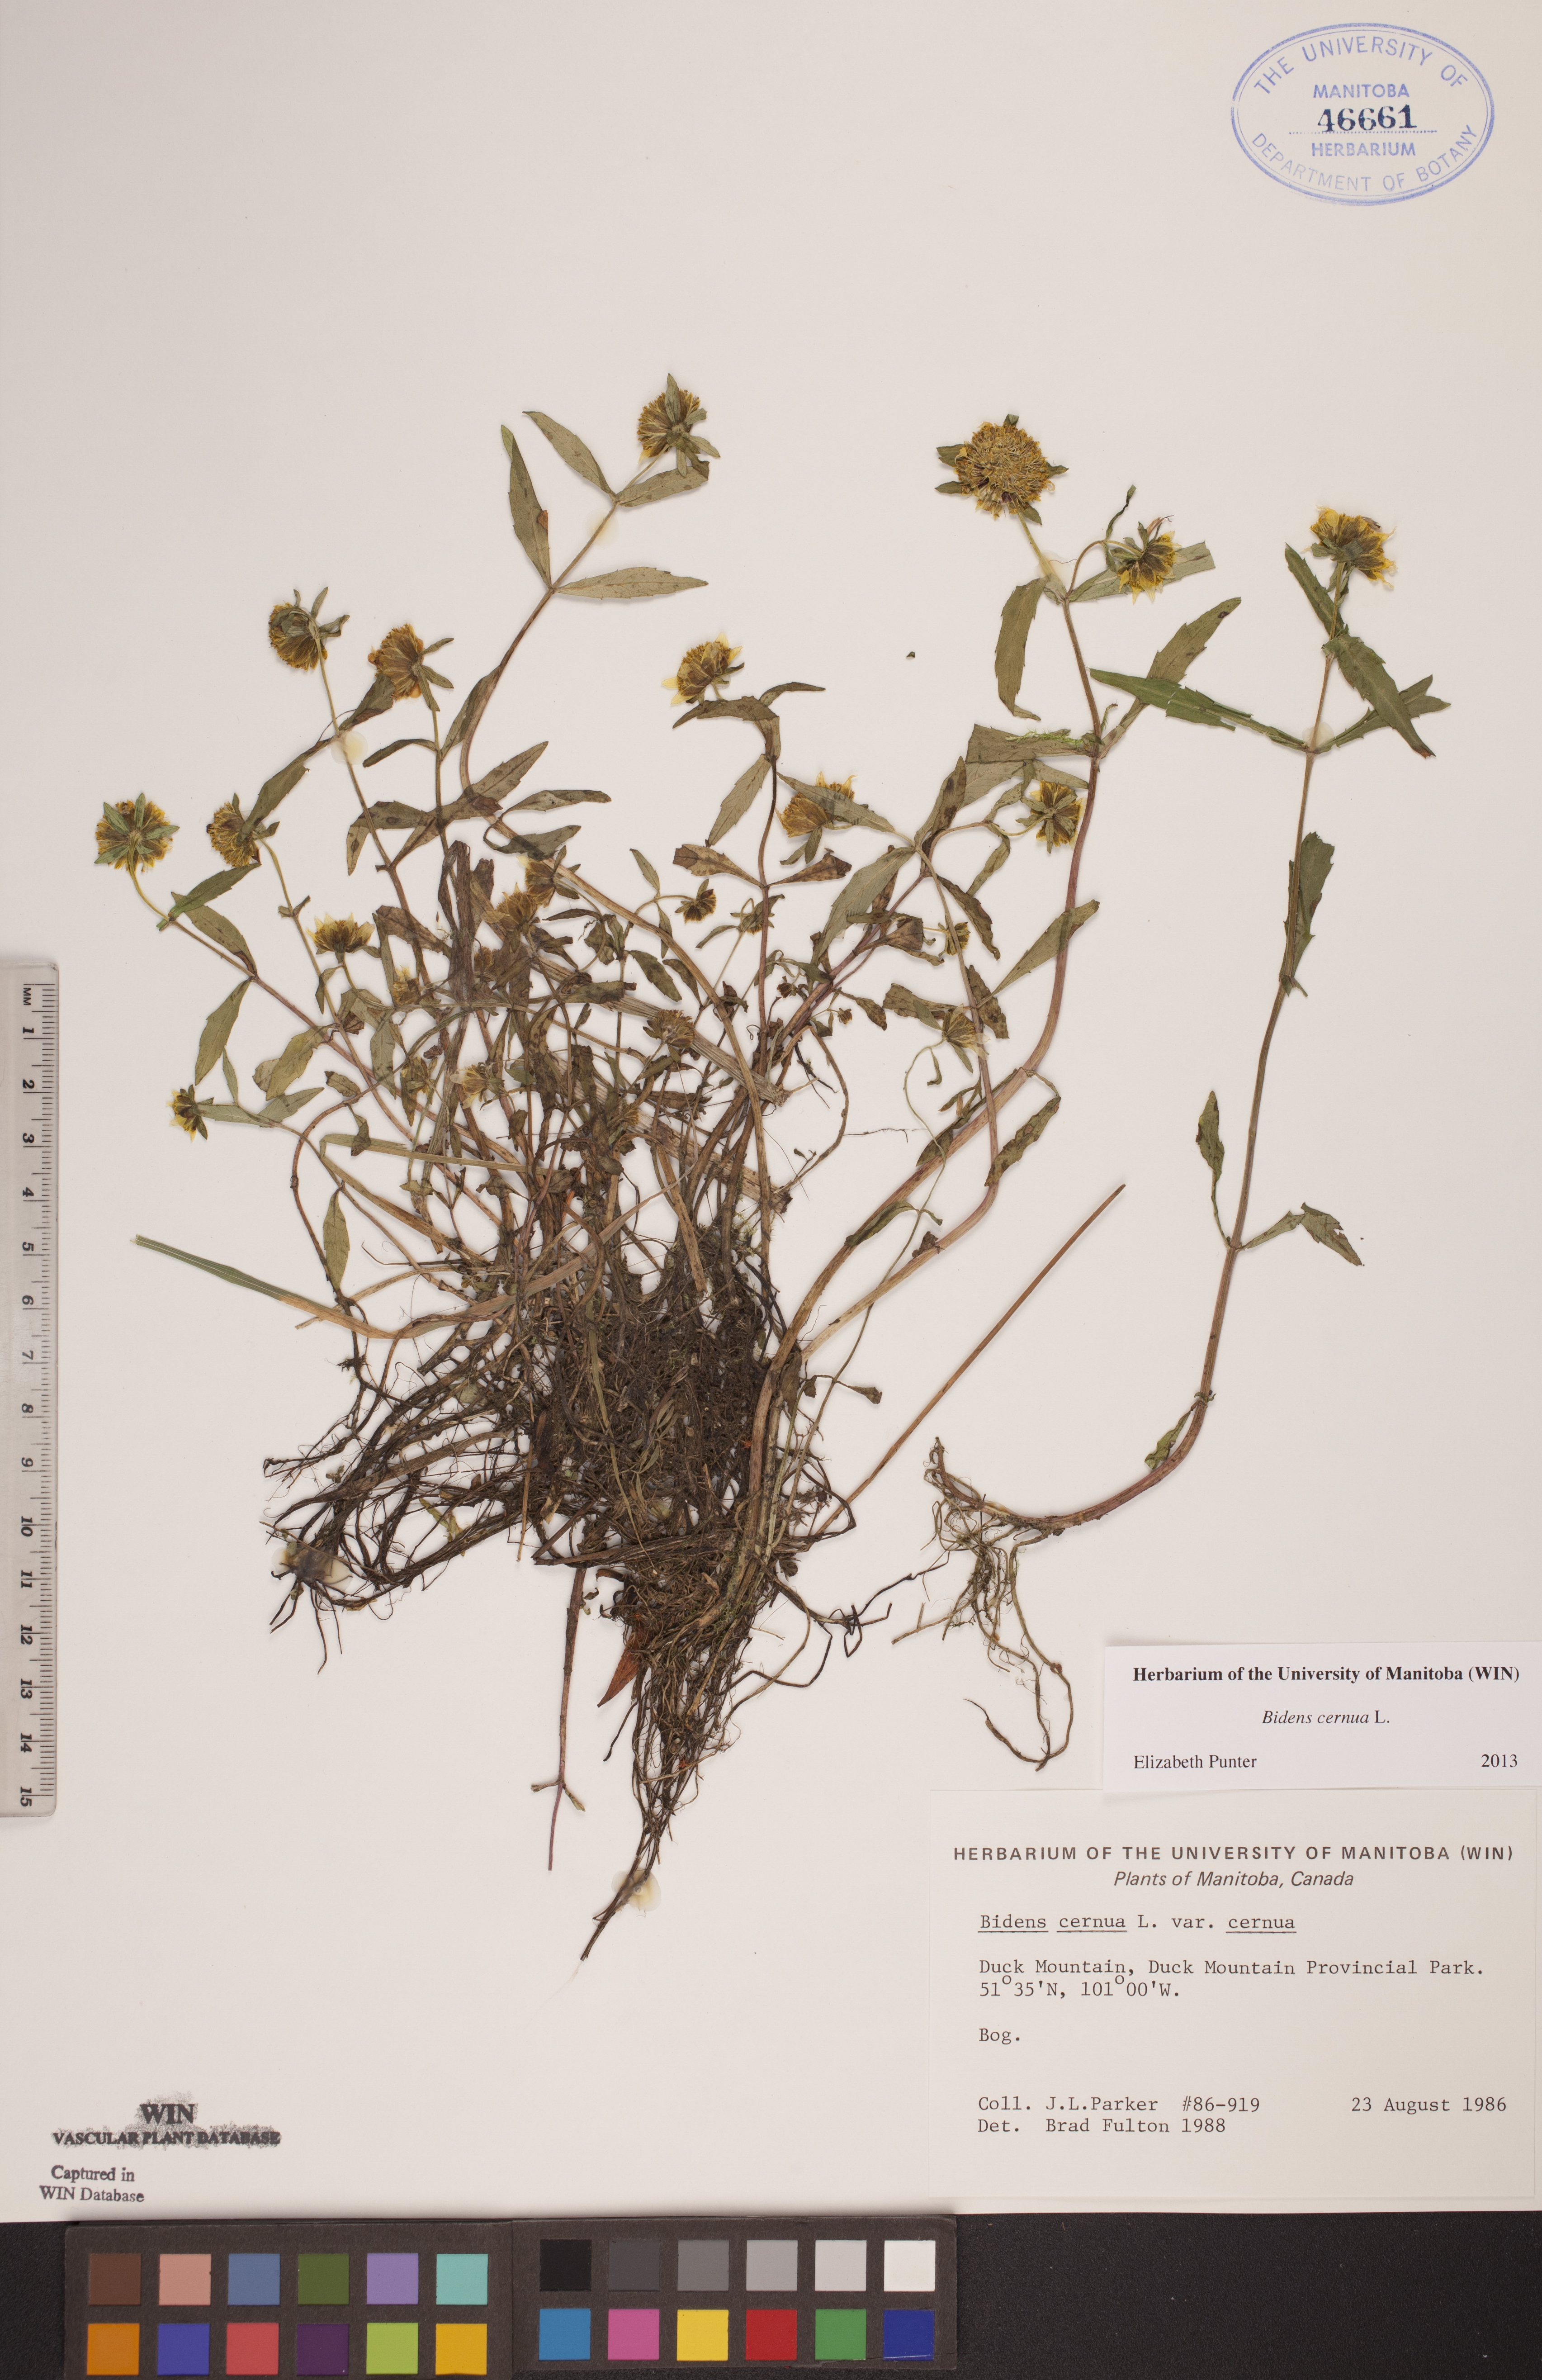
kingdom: Plantae
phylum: Tracheophyta
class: Magnoliopsida
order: Asterales
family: Asteraceae
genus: Bidens
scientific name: Bidens cernua
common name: Nodding bur-marigold
